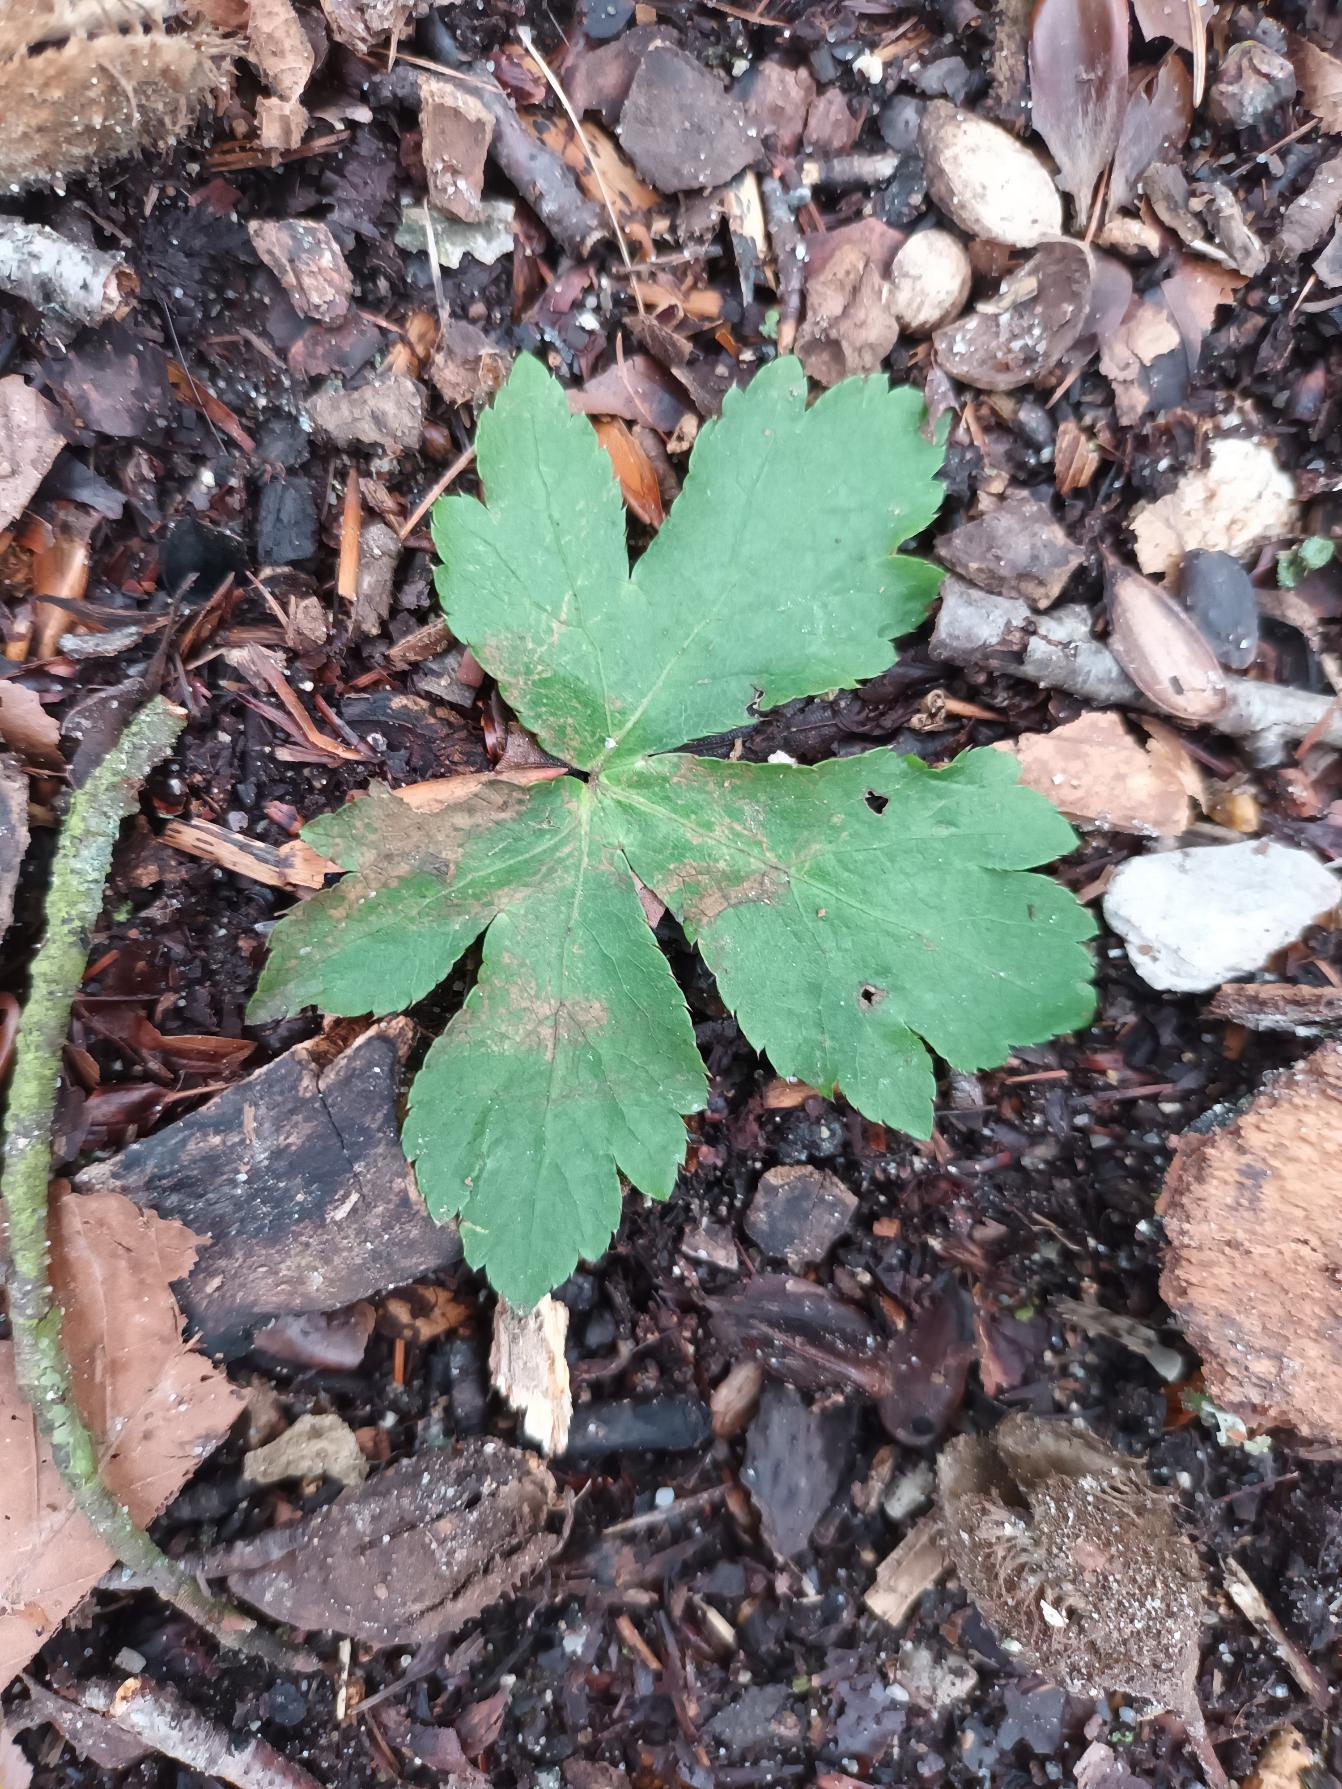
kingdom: Plantae
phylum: Tracheophyta
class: Magnoliopsida
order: Apiales
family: Apiaceae
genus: Sanicula
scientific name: Sanicula europaea
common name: Sanikel
